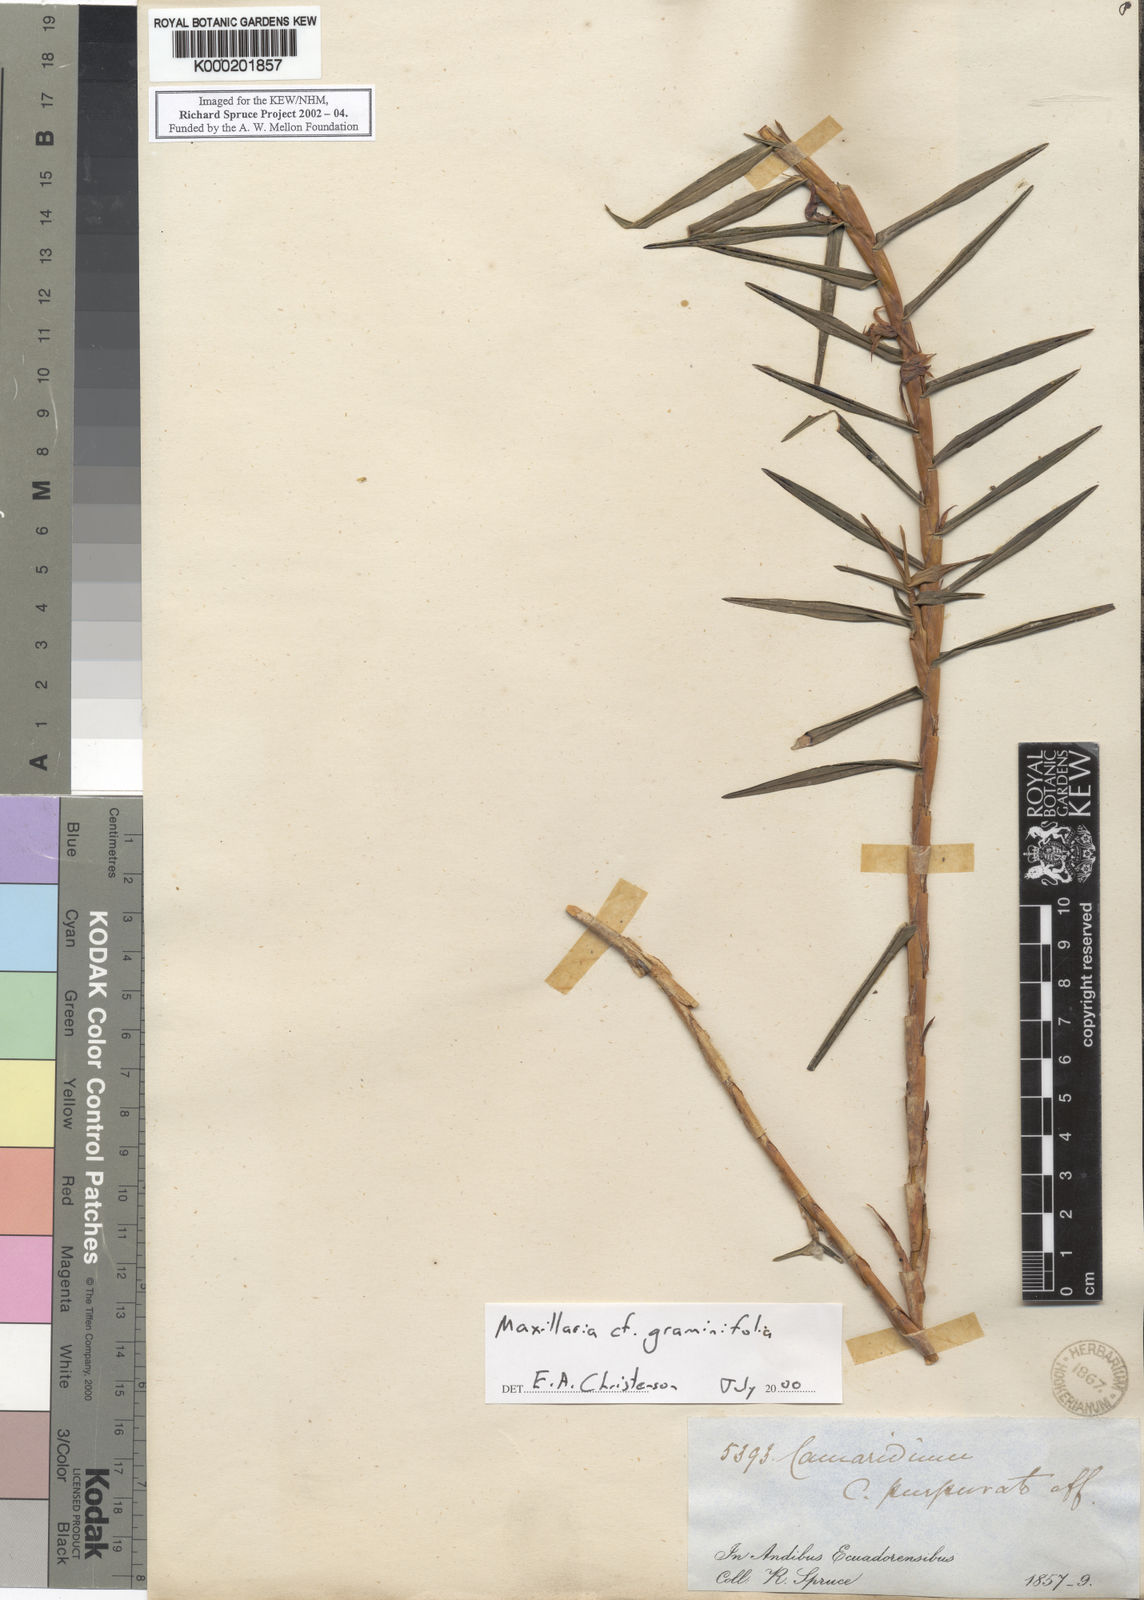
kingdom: Plantae
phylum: Tracheophyta
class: Liliopsida
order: Asparagales
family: Orchidaceae
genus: Maxillaria
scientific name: Maxillaria cassapensis
